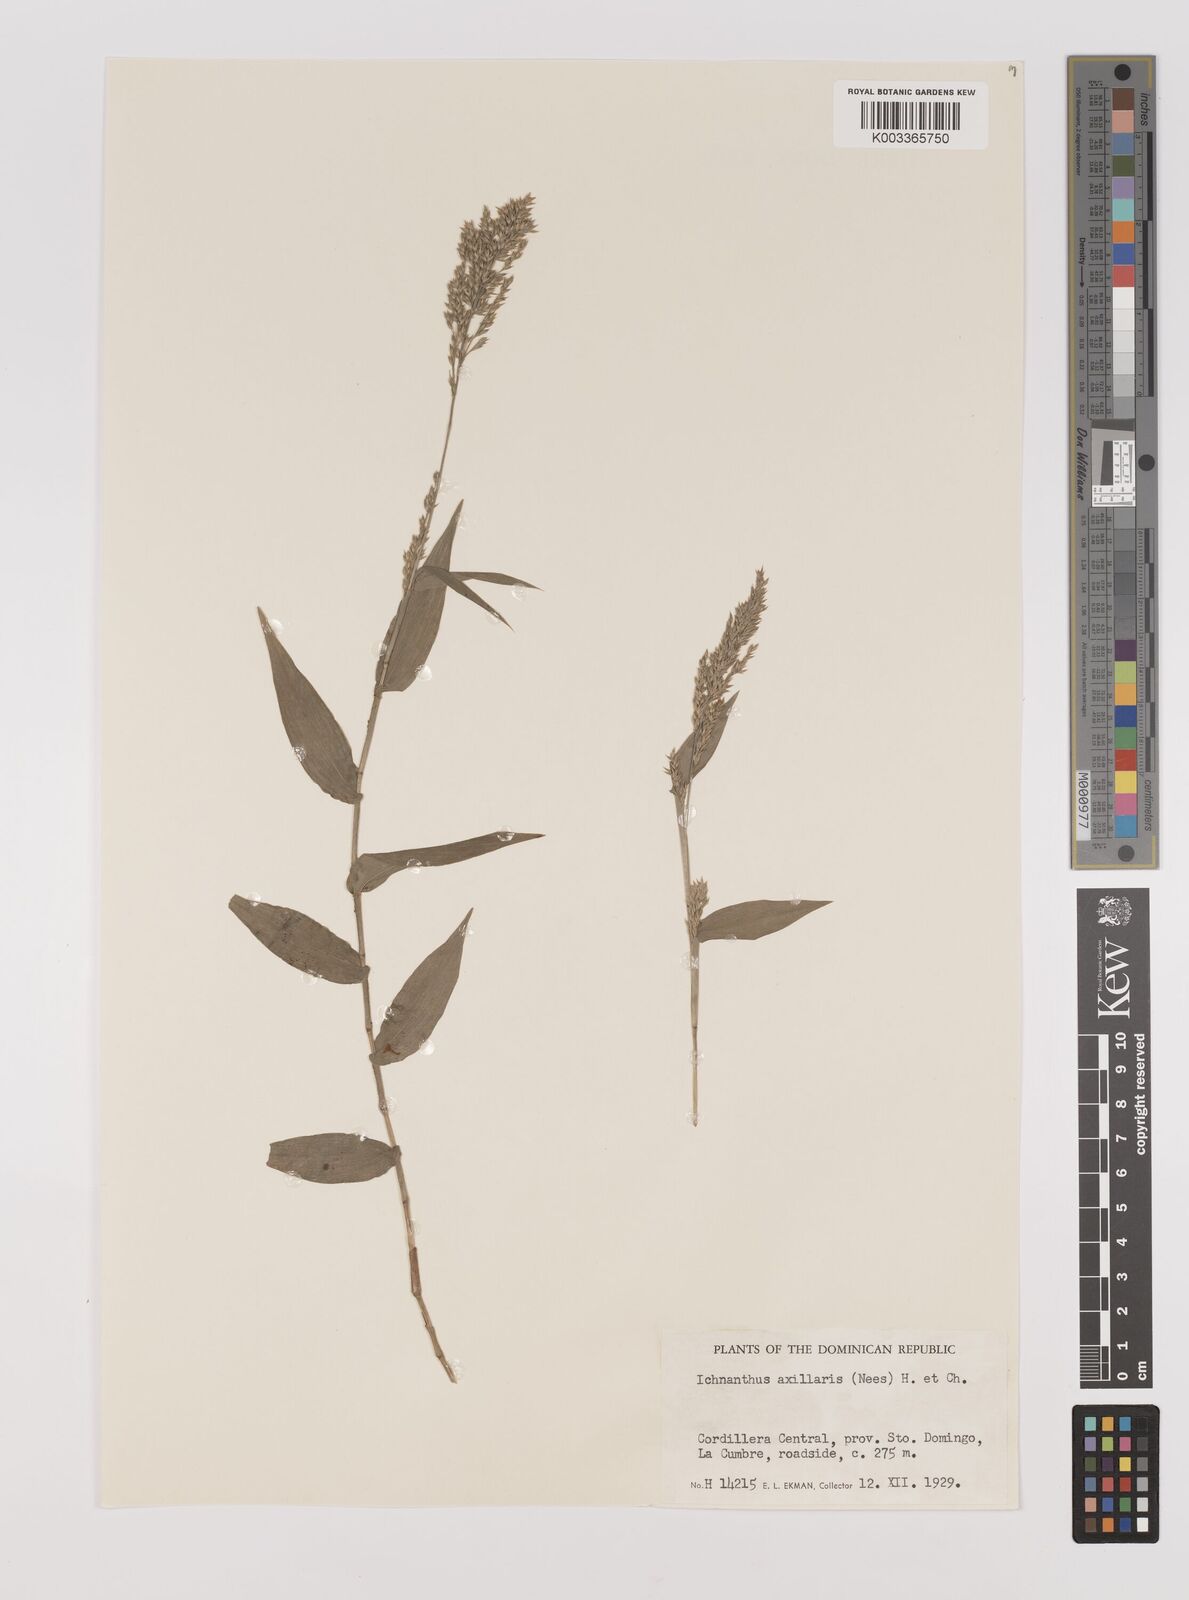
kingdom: Plantae
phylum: Tracheophyta
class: Liliopsida
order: Poales
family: Poaceae
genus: Ichnanthus
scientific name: Ichnanthus pallens
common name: Water grass
